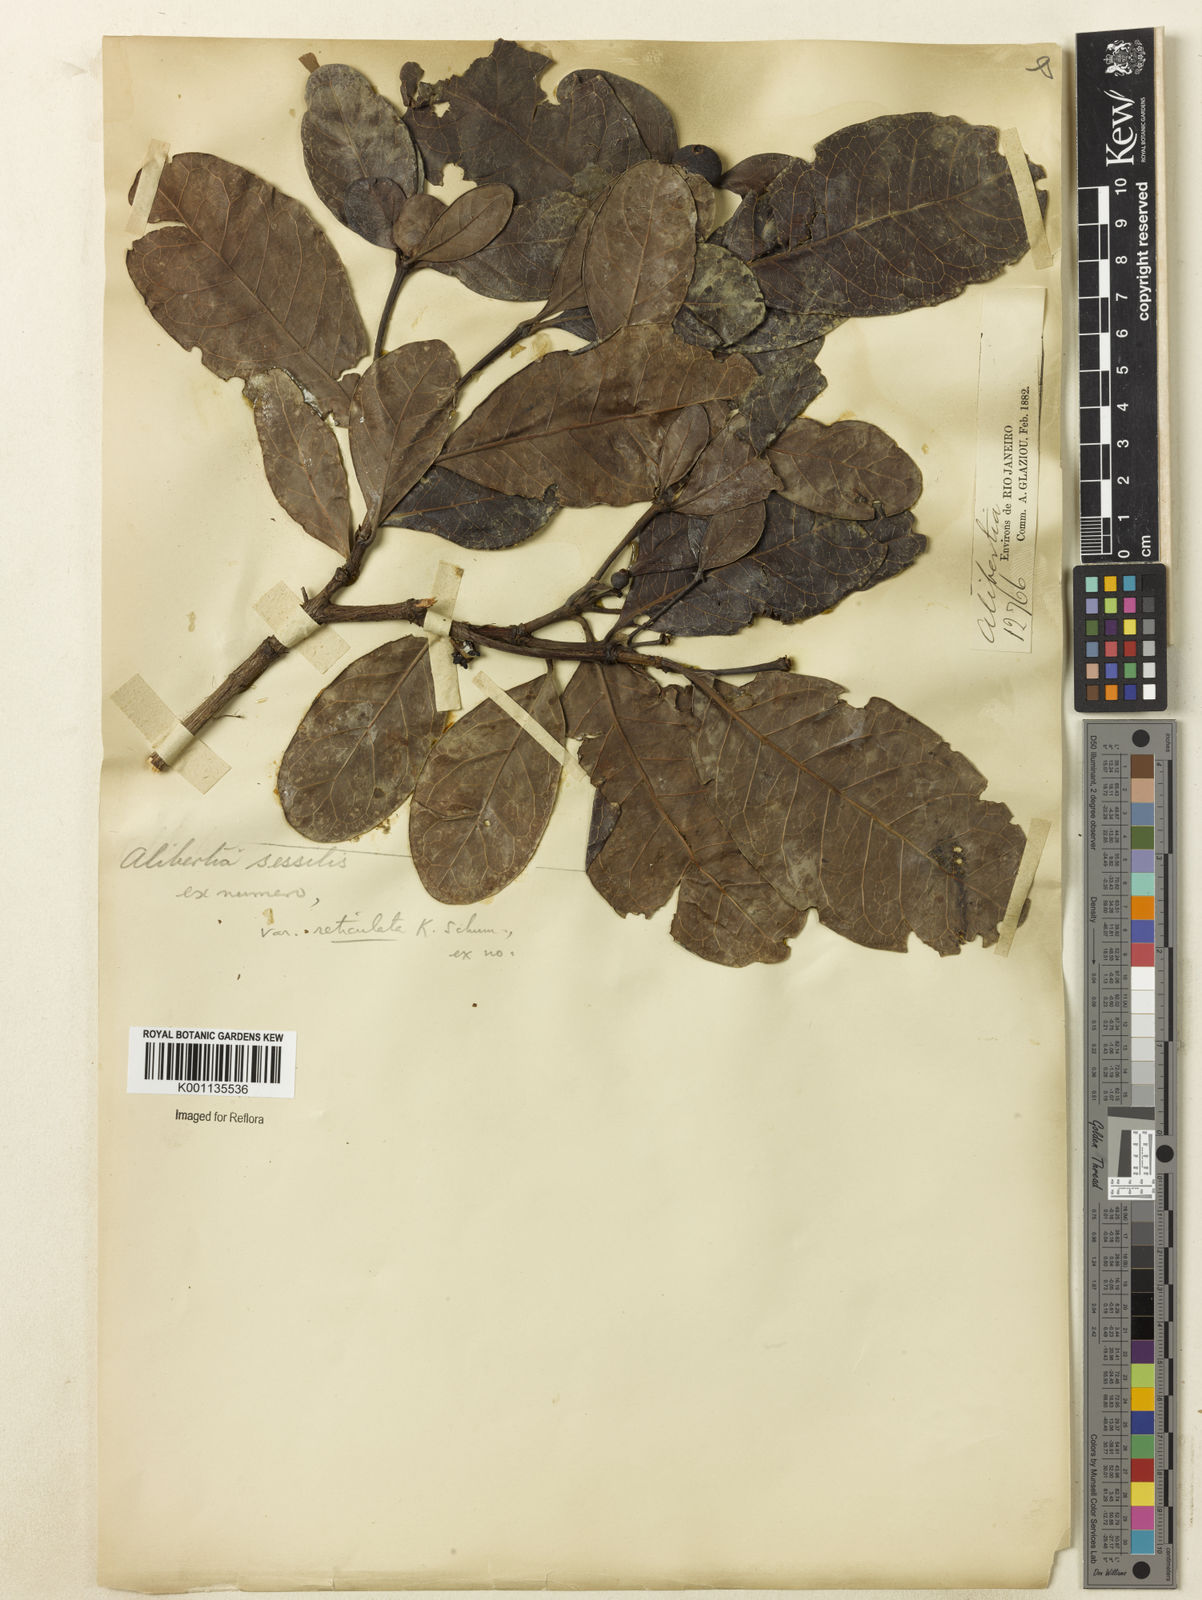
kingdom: Plantae
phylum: Tracheophyta
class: Magnoliopsida
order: Gentianales
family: Rubiaceae
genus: Cordiera
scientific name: Cordiera sessilis
